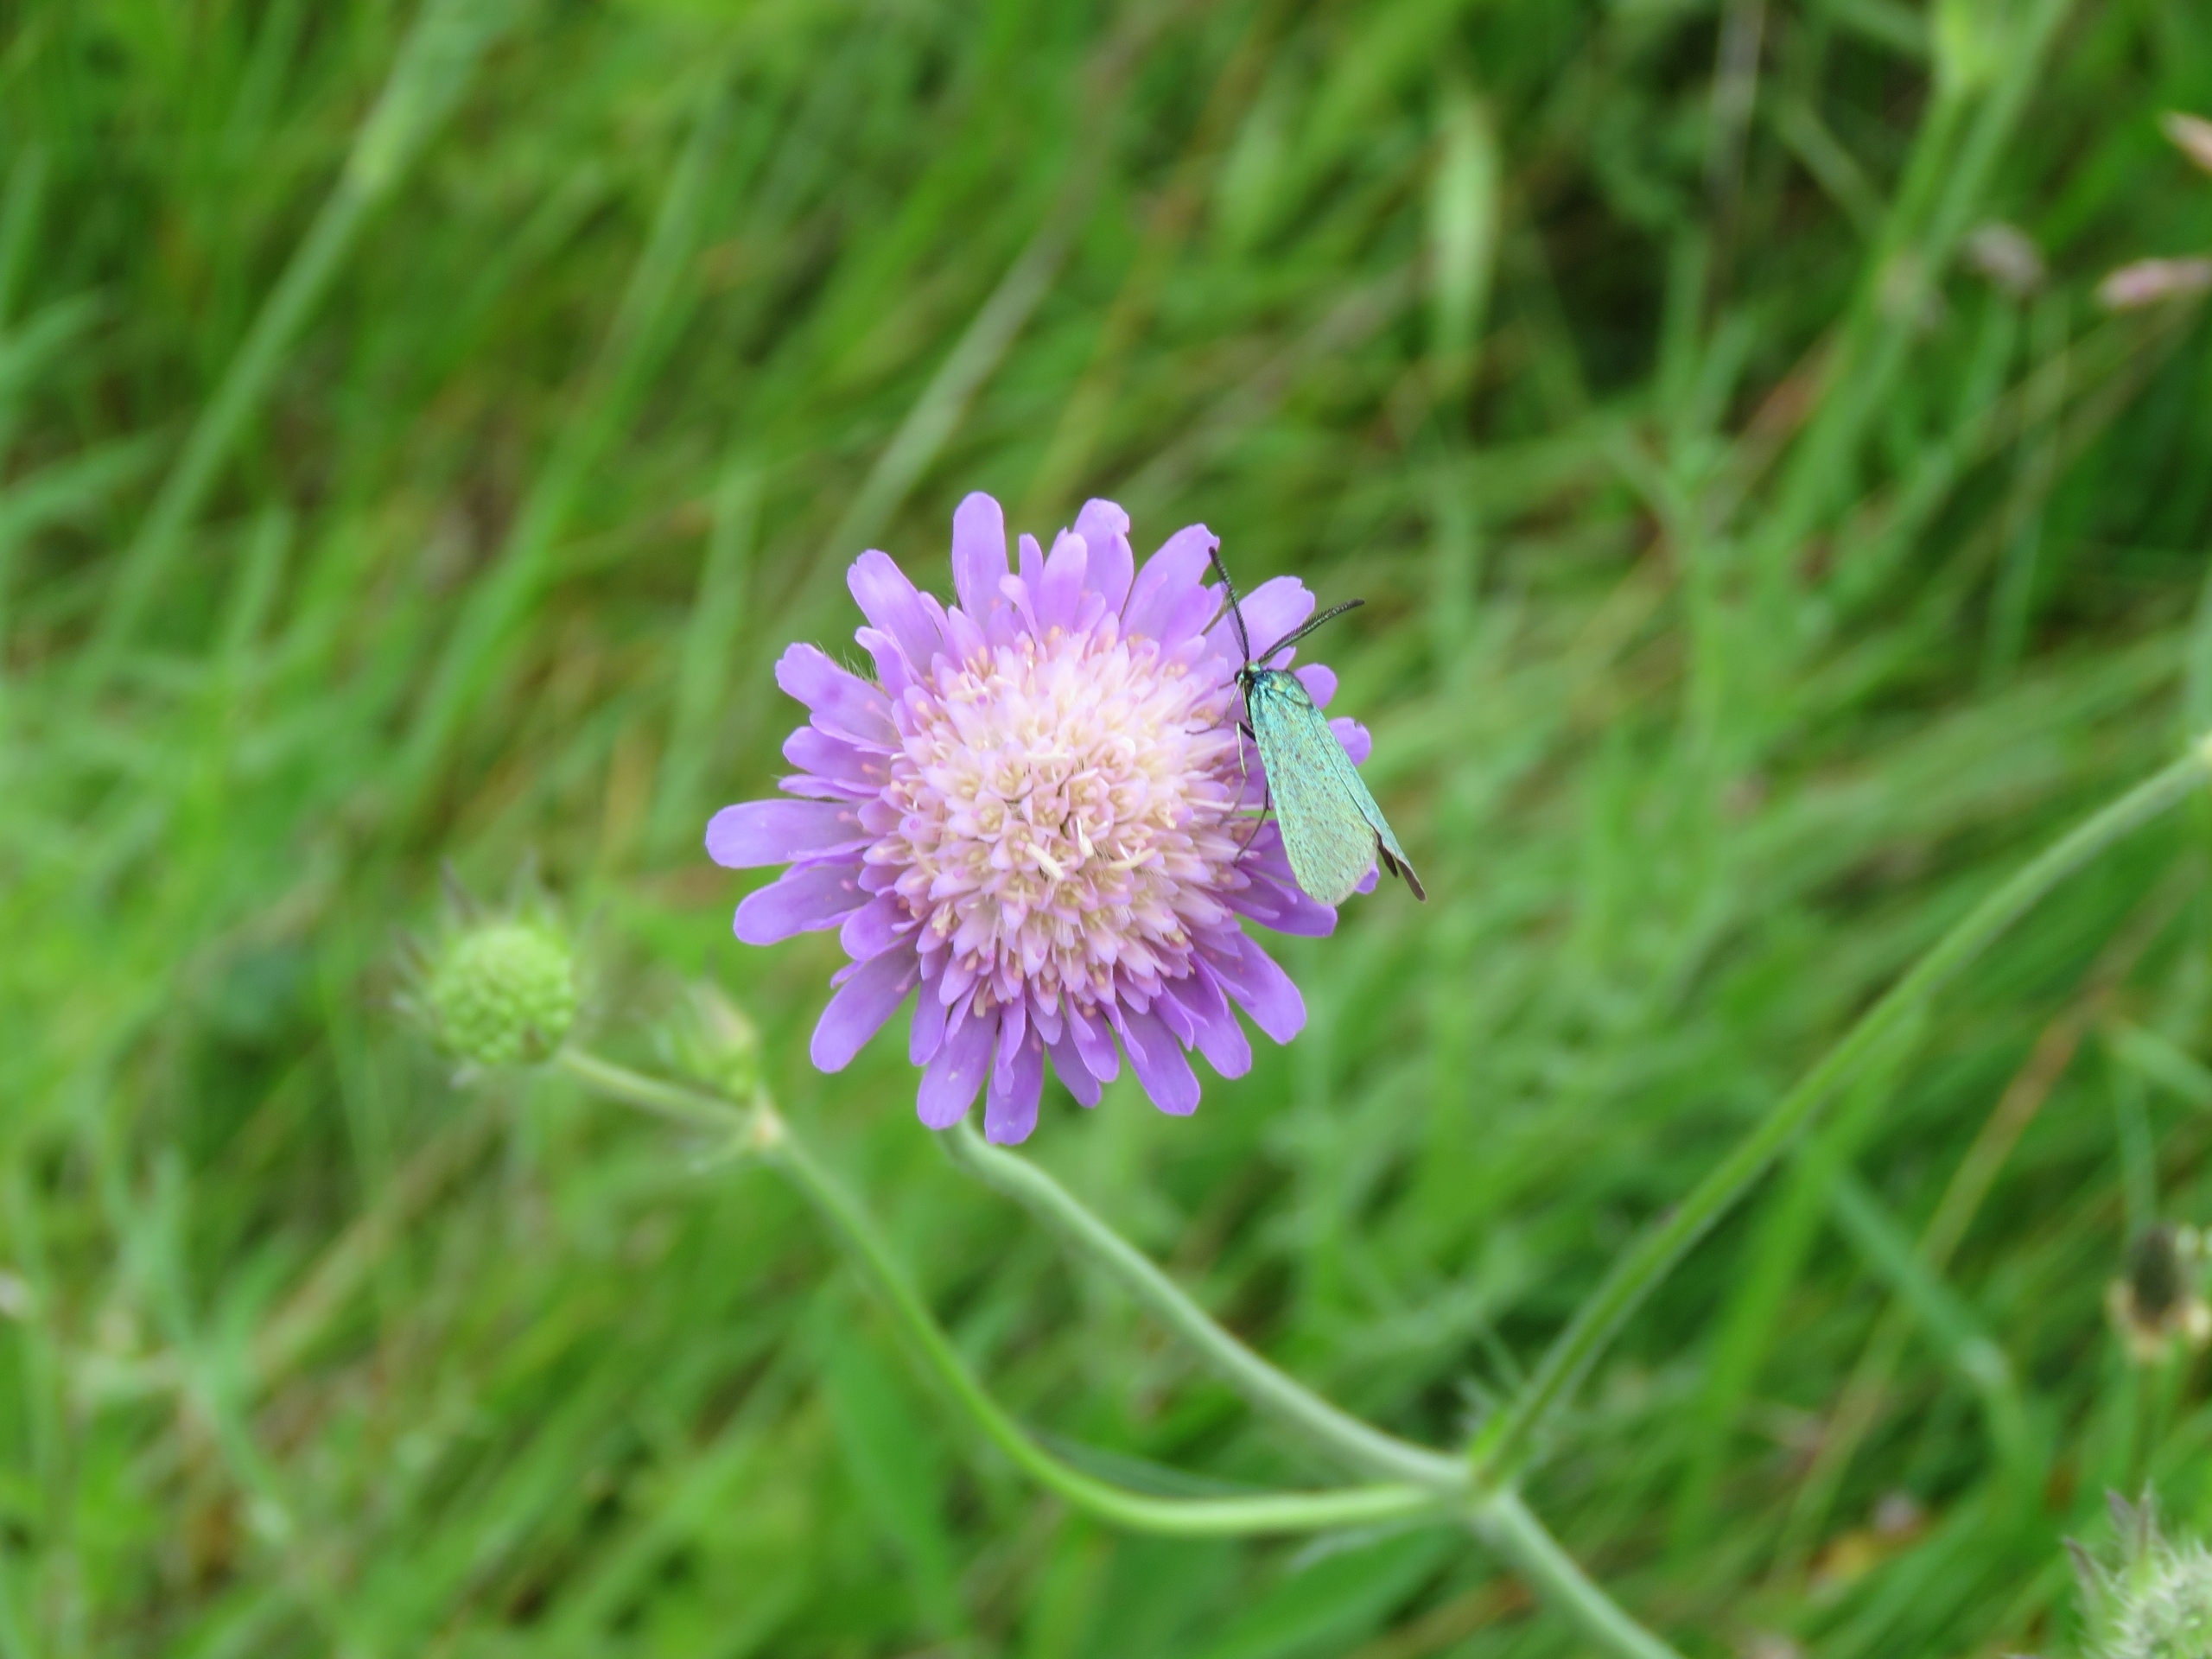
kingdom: Plantae
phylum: Tracheophyta
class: Magnoliopsida
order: Dipsacales
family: Caprifoliaceae
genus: Knautia
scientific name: Knautia arvensis
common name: Blåhat
